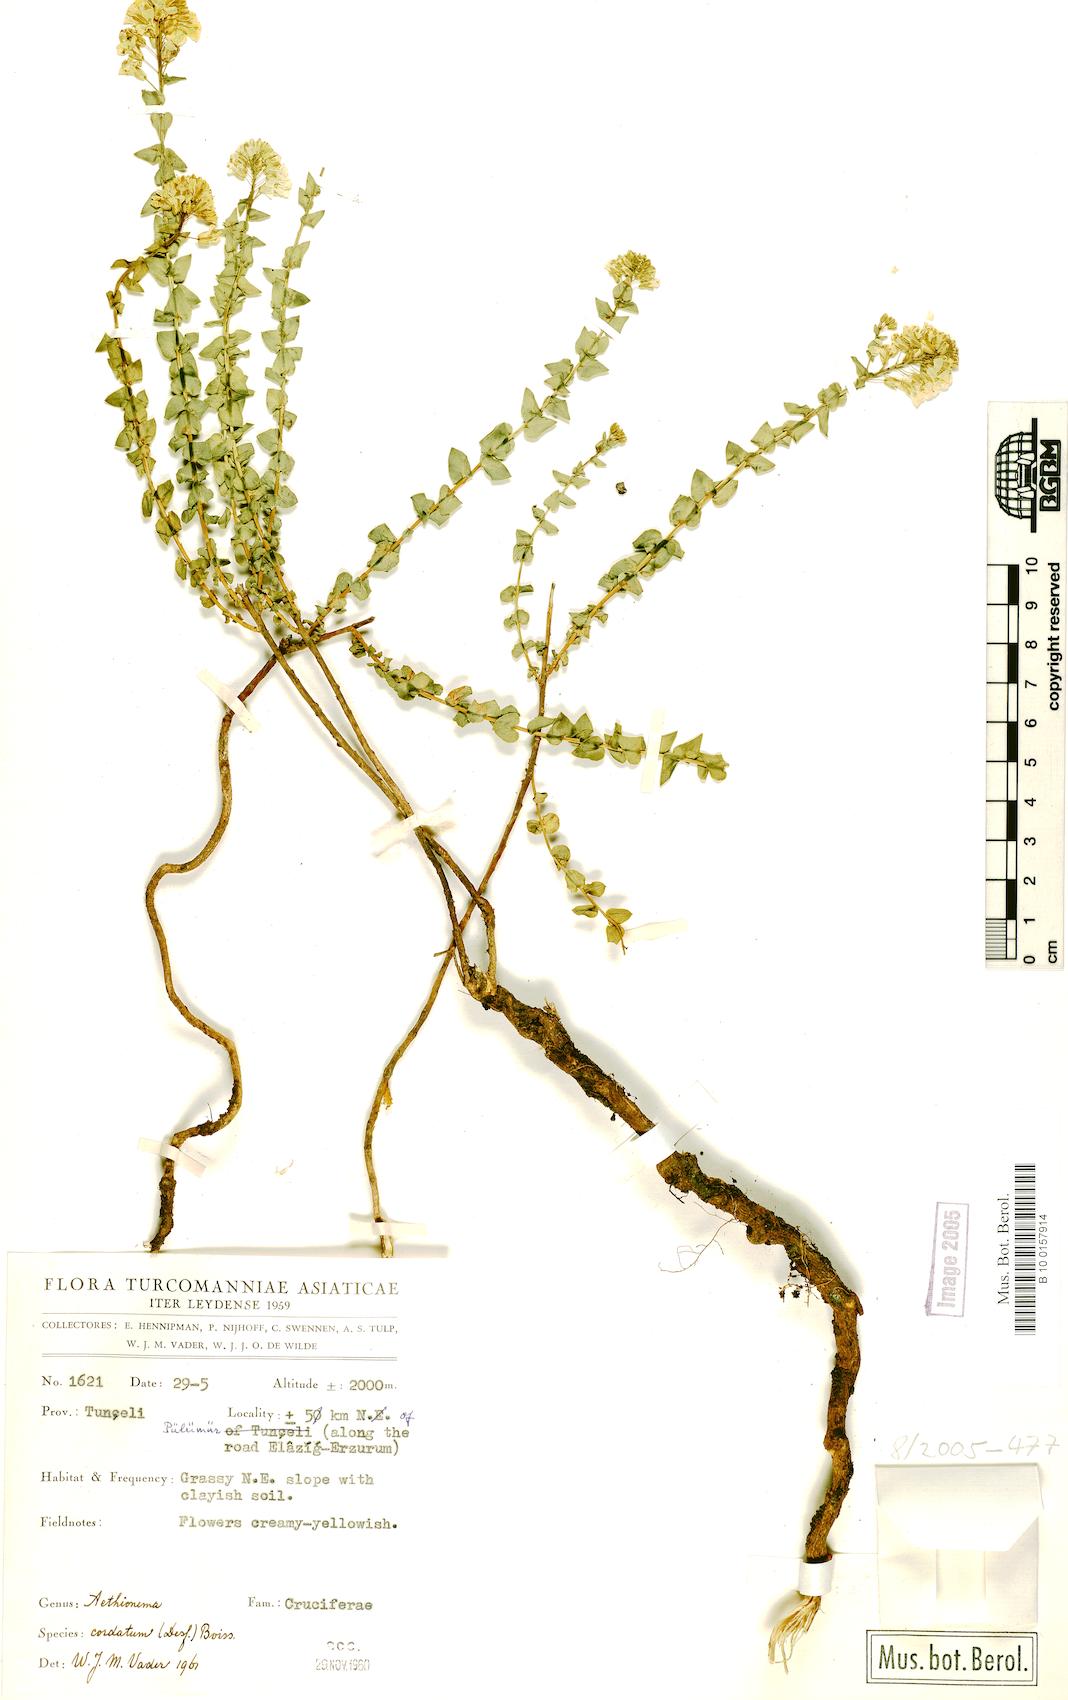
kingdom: Plantae
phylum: Tracheophyta
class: Magnoliopsida
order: Brassicales
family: Brassicaceae
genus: Aethionema
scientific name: Aethionema cordatum
